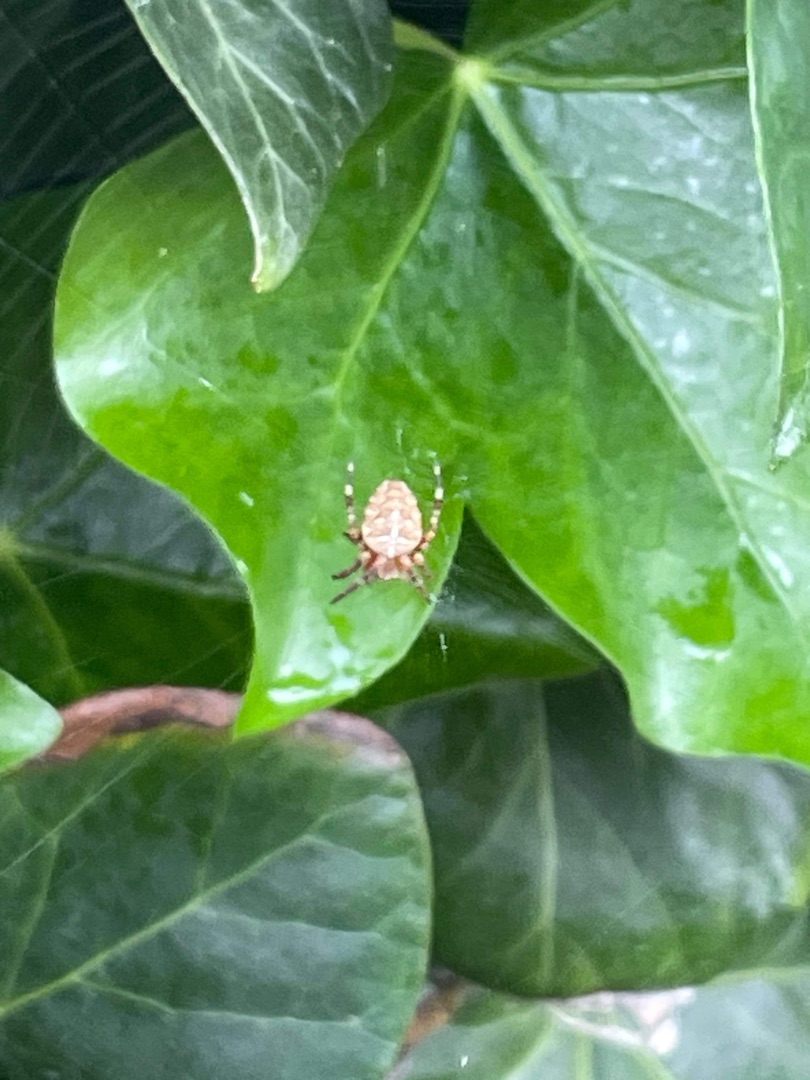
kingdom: Animalia
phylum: Arthropoda
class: Arachnida
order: Araneae
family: Araneidae
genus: Araneus
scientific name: Araneus diadematus
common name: Korsedderkop
